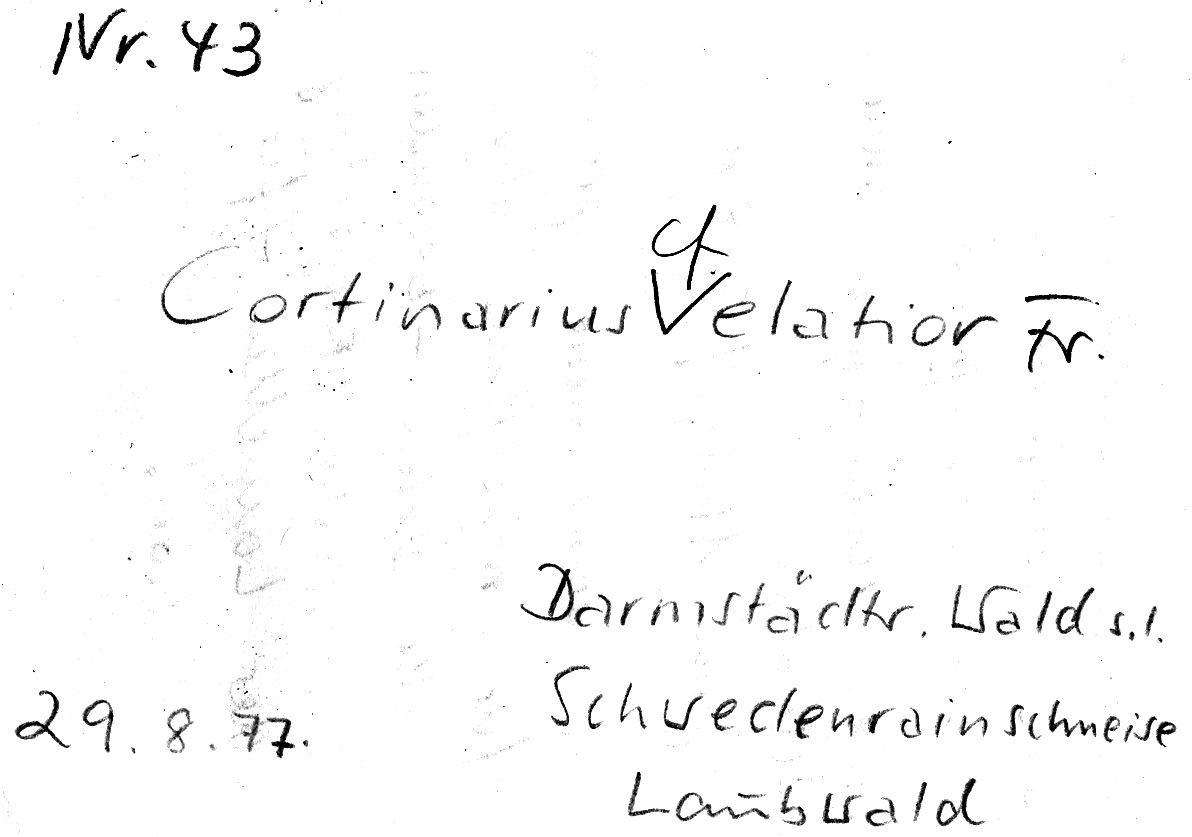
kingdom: Fungi
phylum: Basidiomycota
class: Agaricomycetes
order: Agaricales
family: Cortinariaceae
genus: Cortinarius
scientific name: Cortinarius livido-ochraceus
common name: Wrinkled webcap
